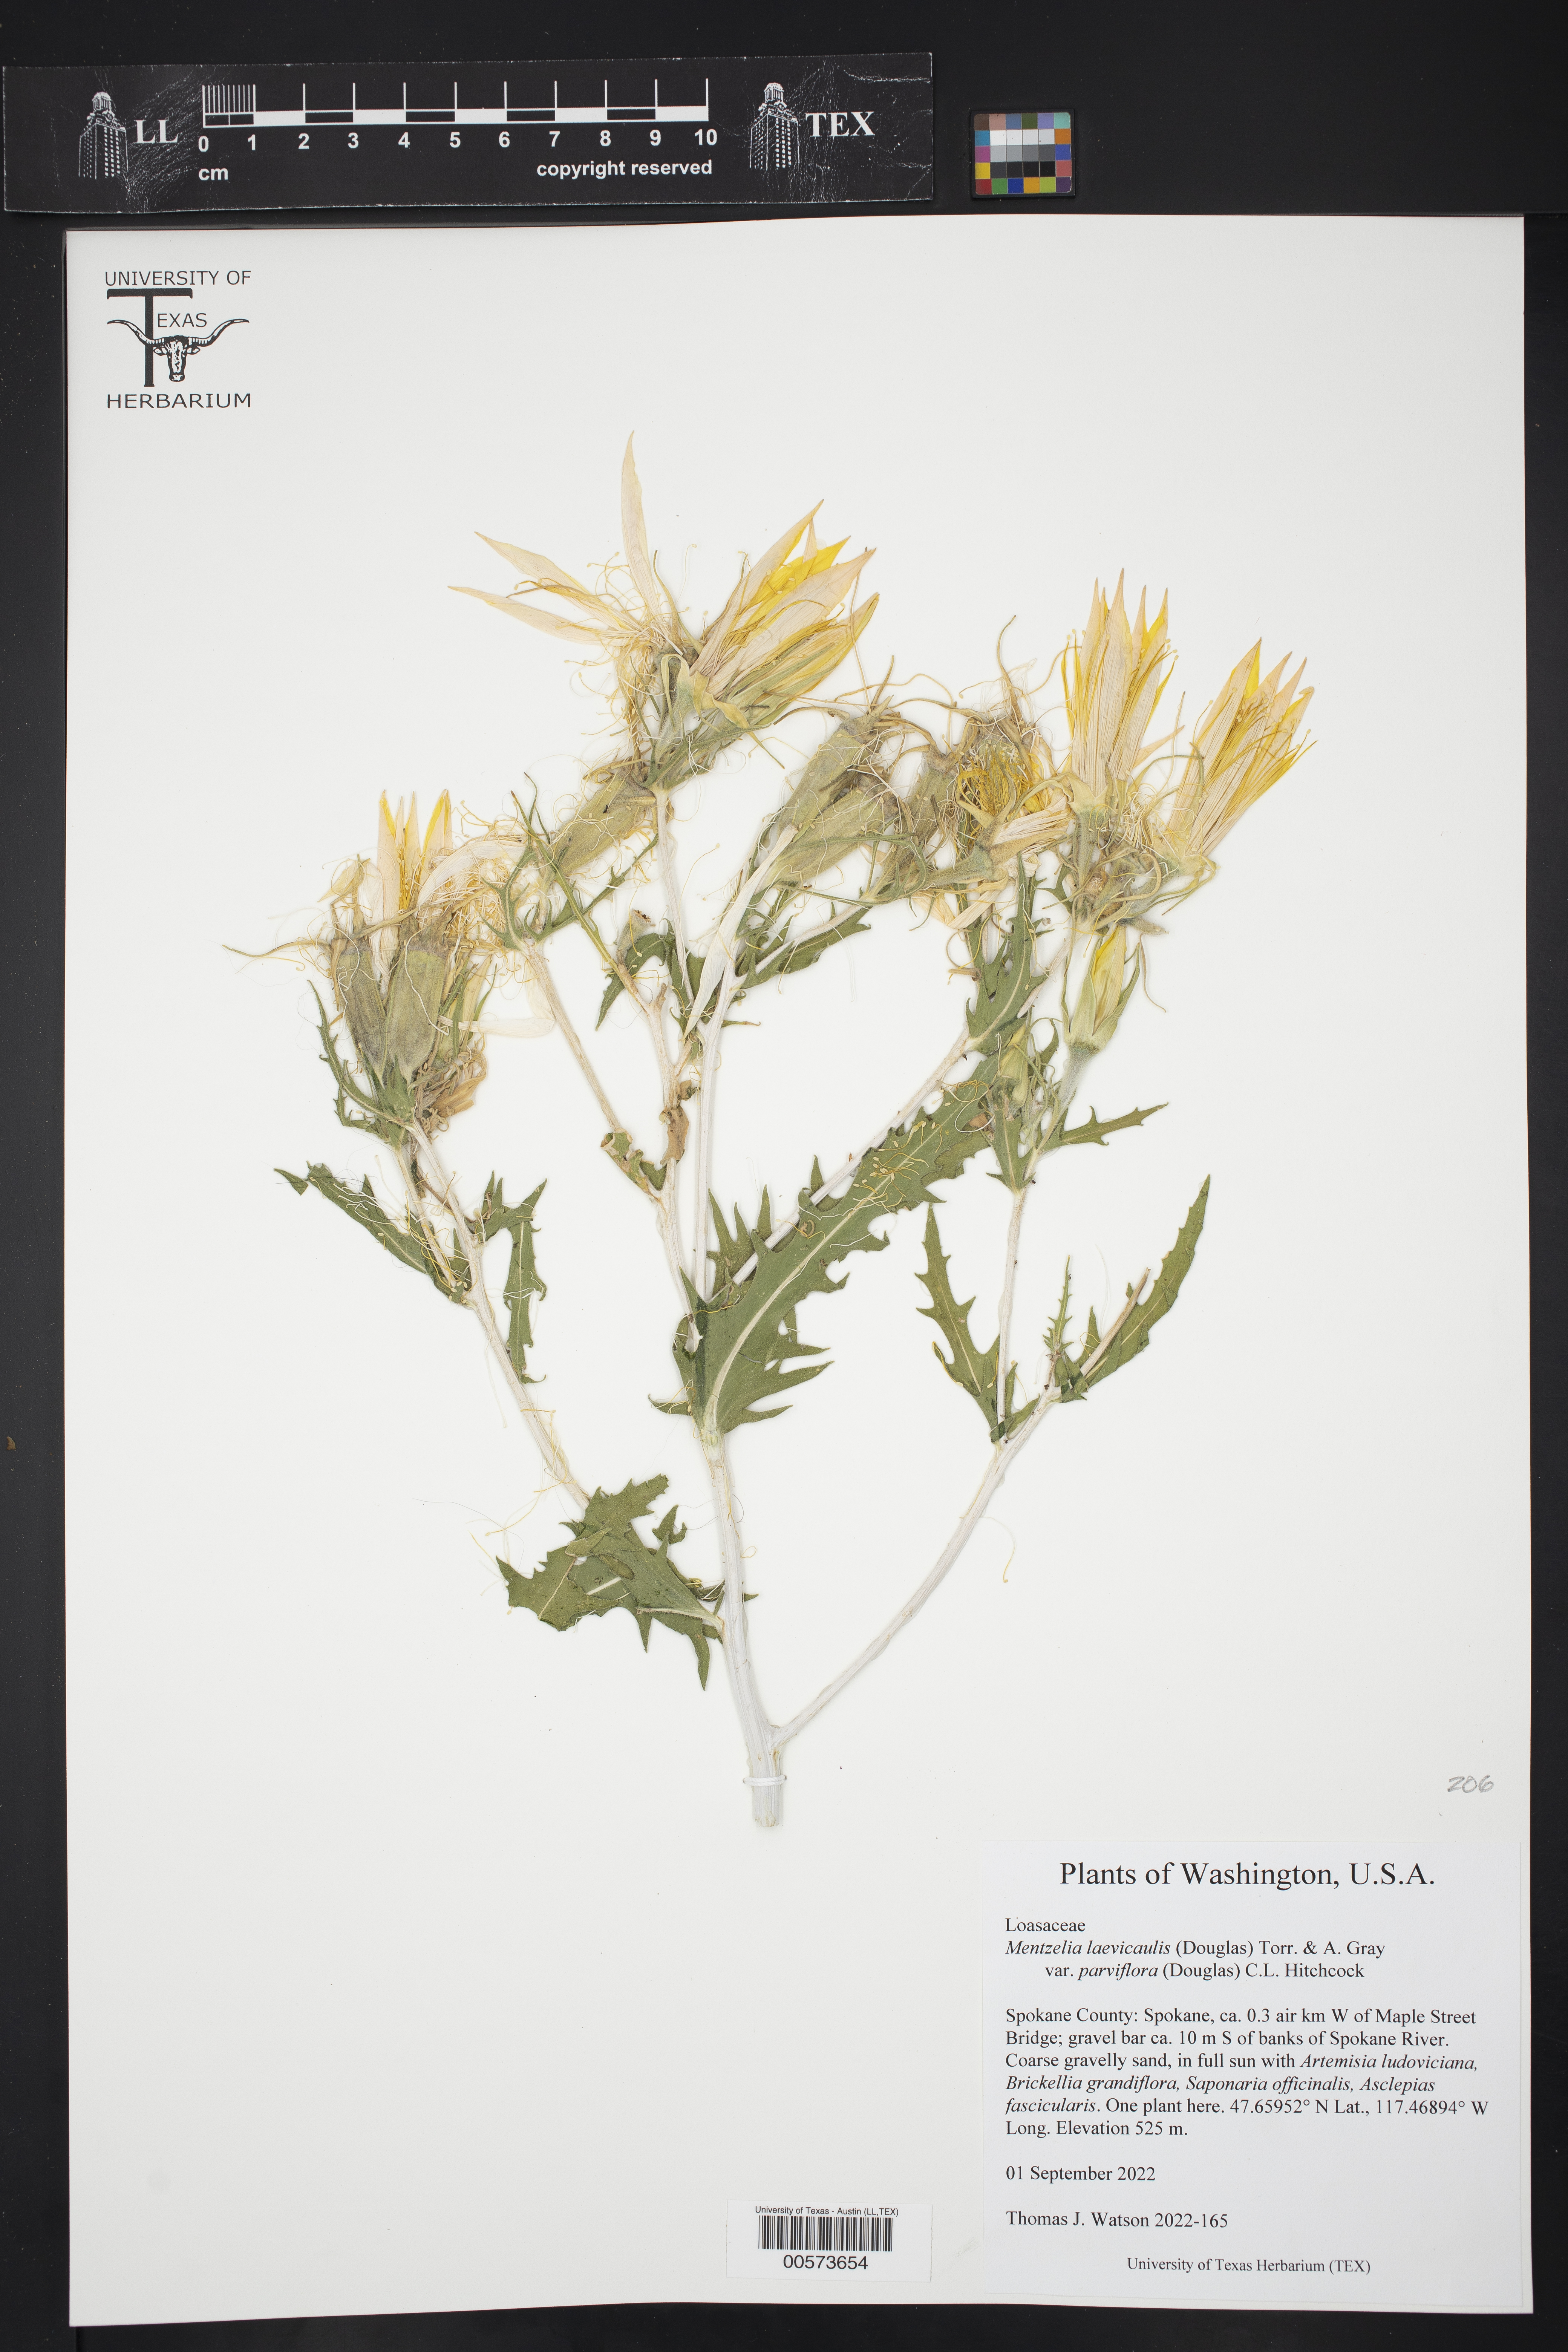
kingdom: Plantae
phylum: Tracheophyta
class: Magnoliopsida
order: Cornales
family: Loasaceae
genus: Mentzelia
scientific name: Mentzelia laevicaulis
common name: Smooth-stem blazingstar
